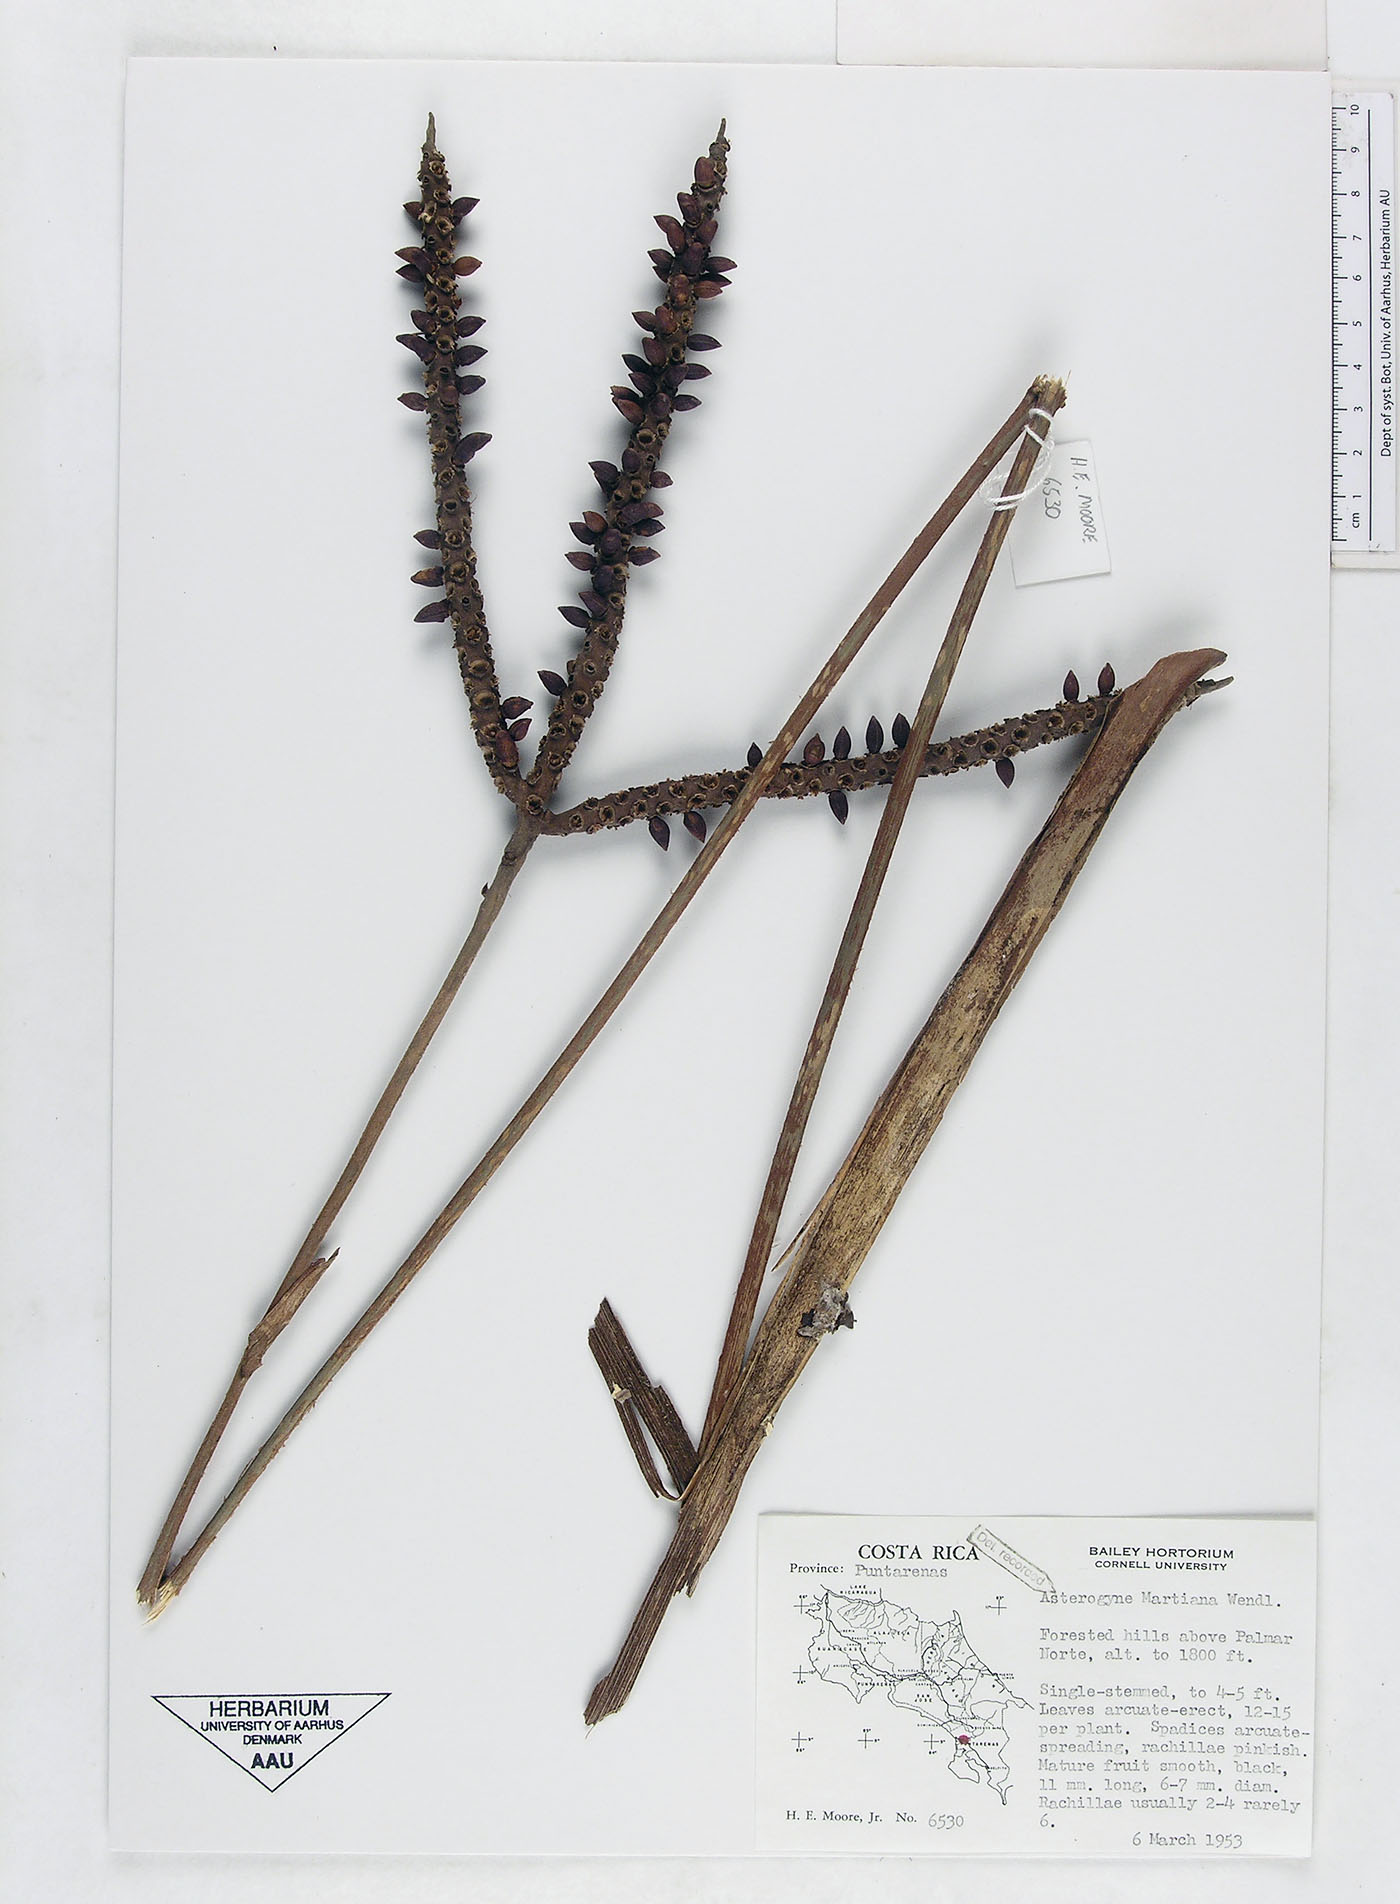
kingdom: Plantae
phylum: Tracheophyta
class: Liliopsida
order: Arecales
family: Arecaceae
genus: Asterogyne
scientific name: Asterogyne martiana
